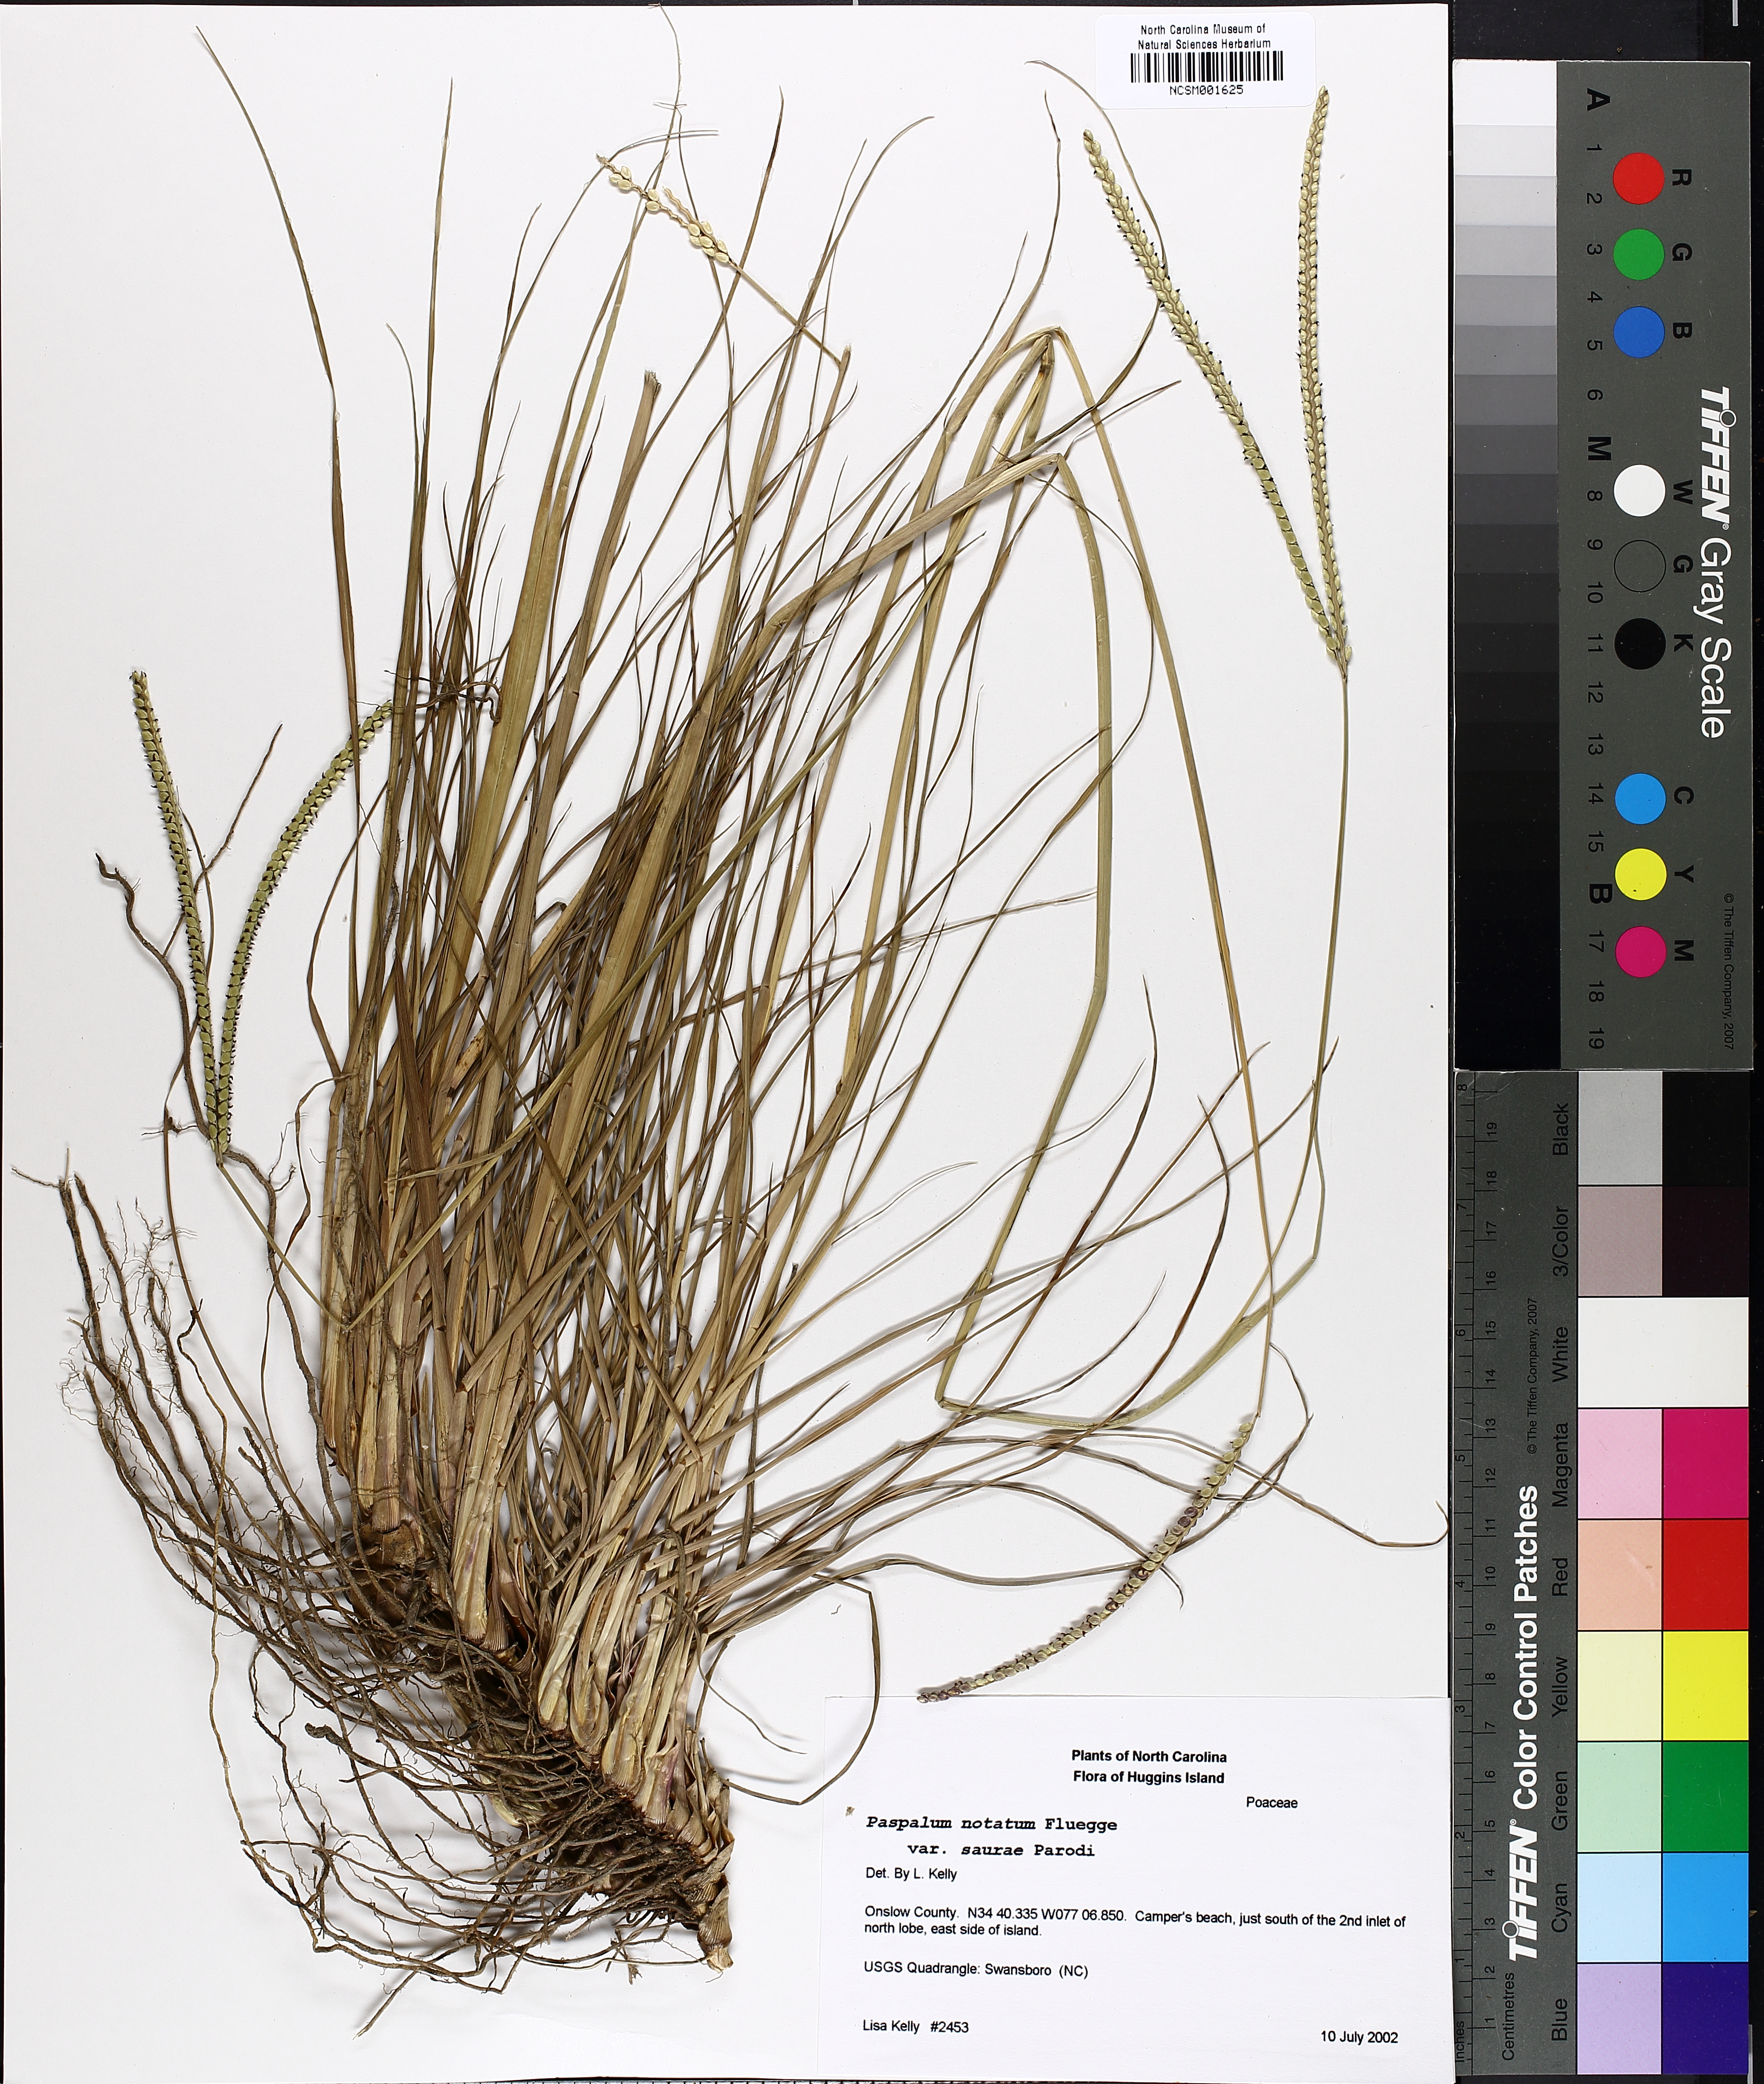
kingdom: Plantae
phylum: Tracheophyta
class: Liliopsida
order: Poales
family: Poaceae
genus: Paspalum
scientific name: Paspalum saurae
